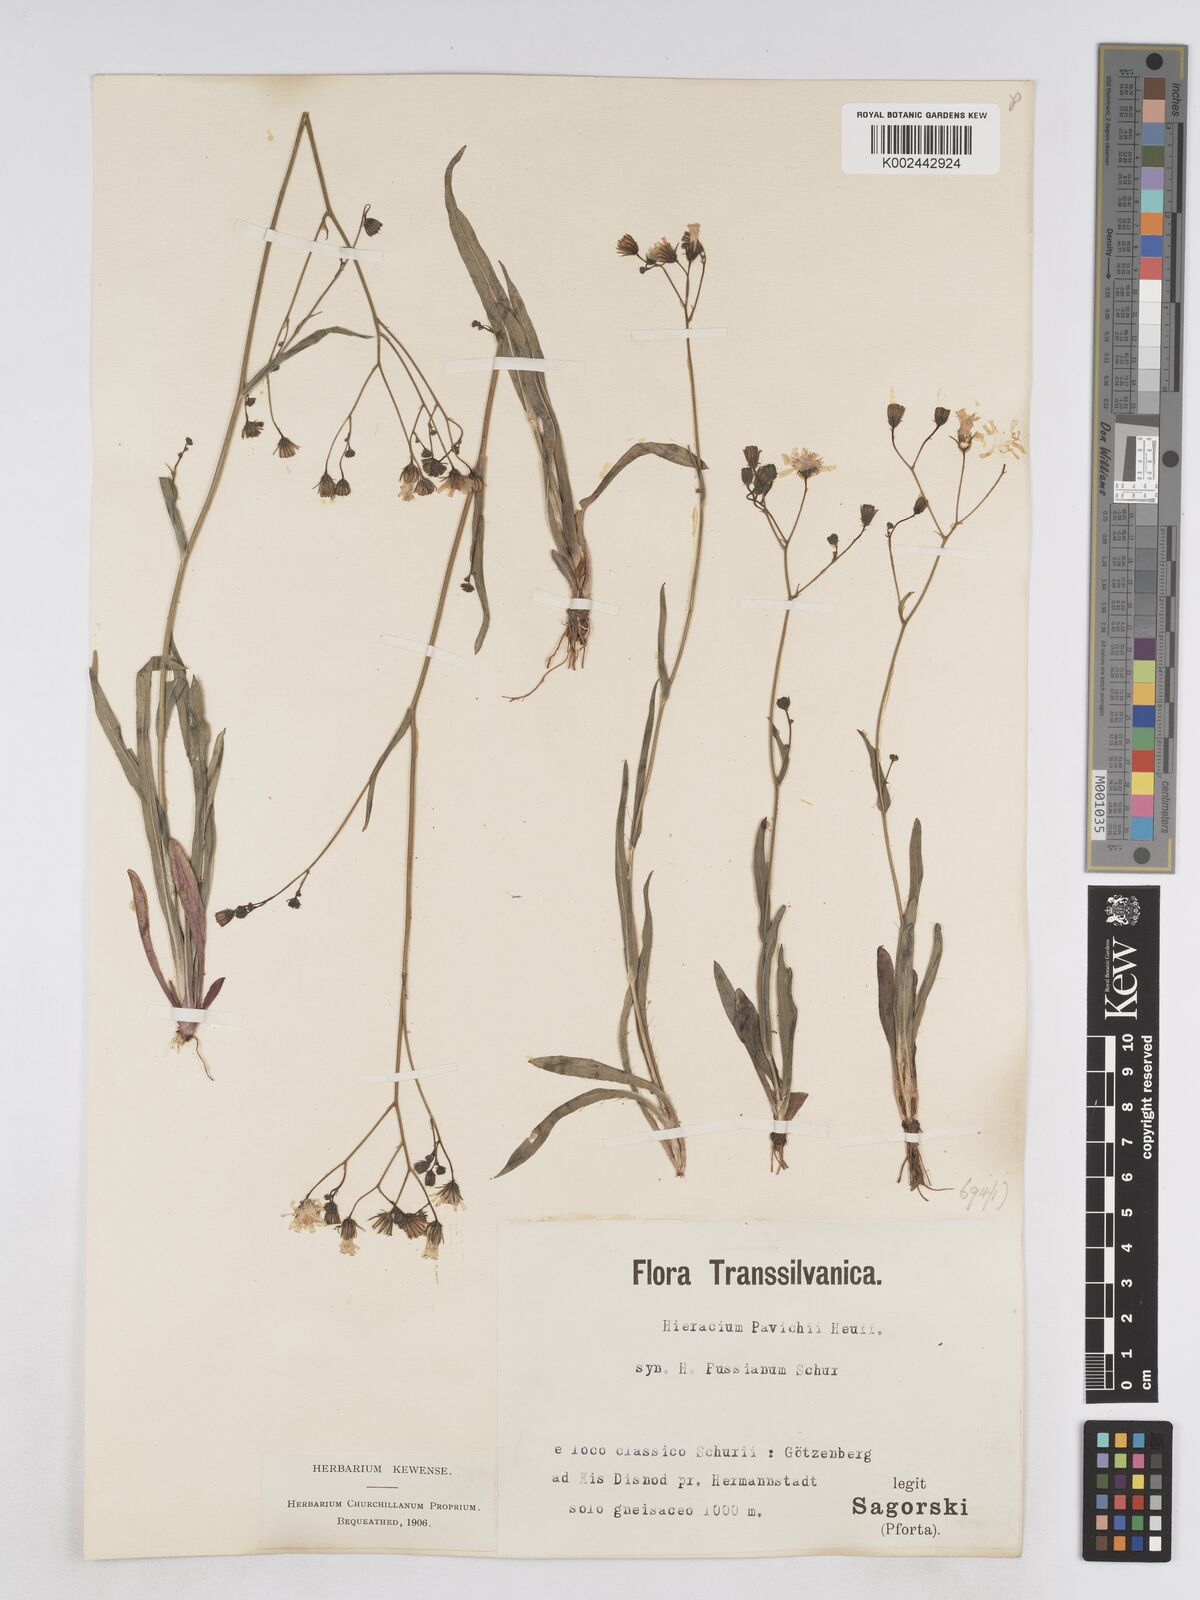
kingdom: Plantae
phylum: Tracheophyta
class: Magnoliopsida
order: Asterales
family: Asteraceae
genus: Pilosella
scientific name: Pilosella pavichii
